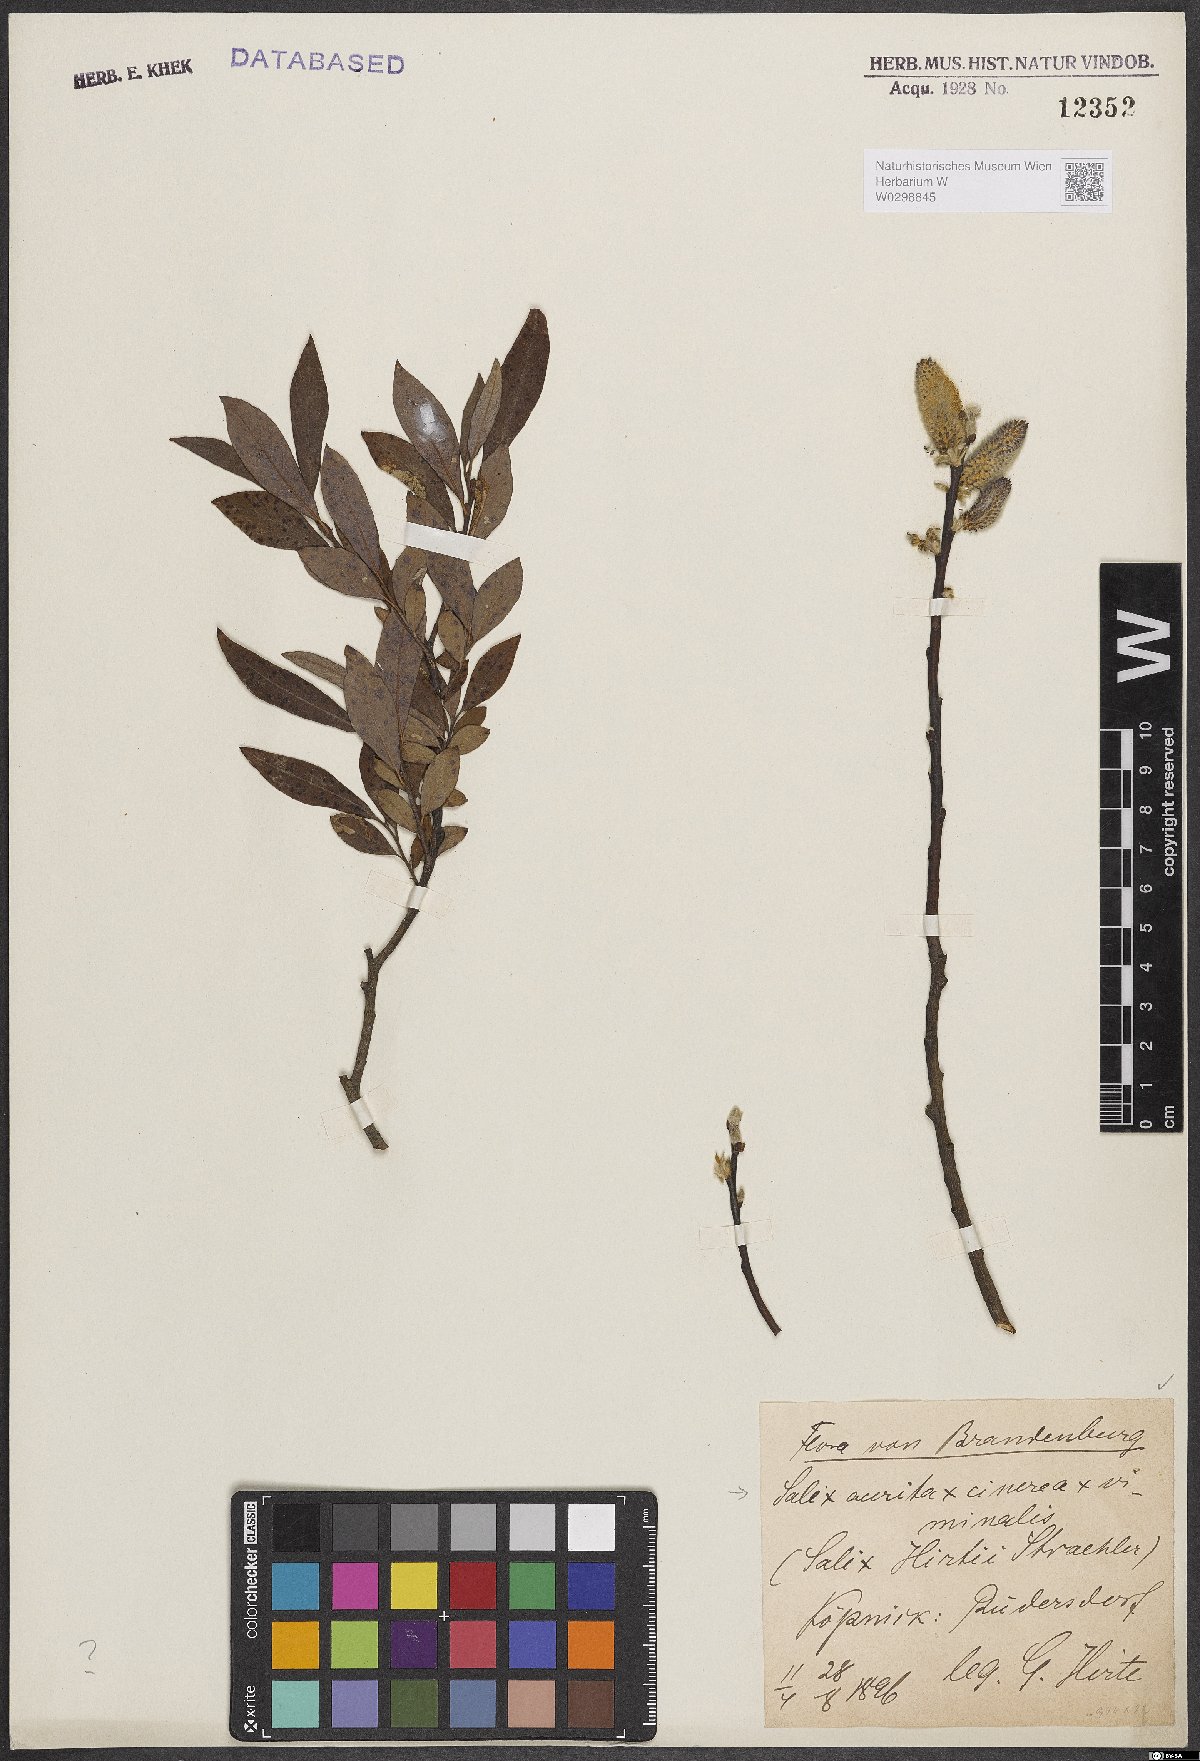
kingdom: Plantae
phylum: Tracheophyta
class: Magnoliopsida
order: Malpighiales
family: Salicaceae
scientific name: Salicaceae
